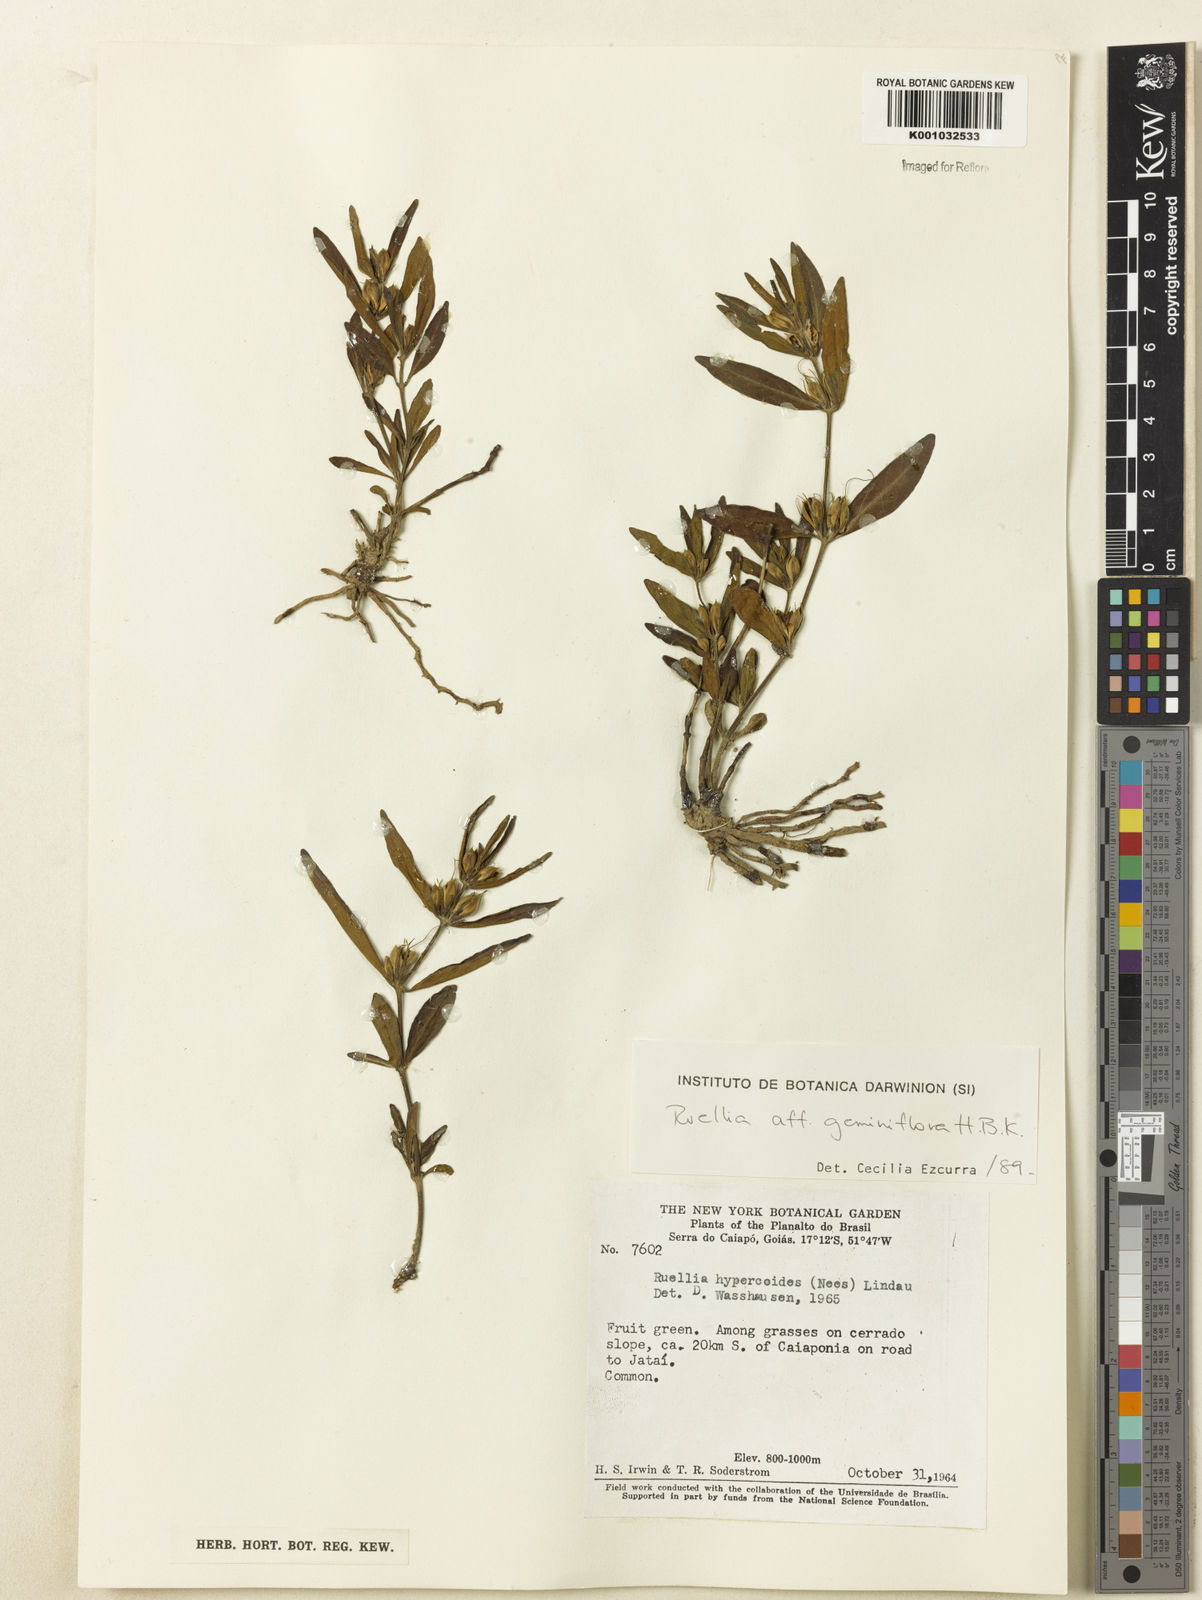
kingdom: Plantae
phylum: Tracheophyta
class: Magnoliopsida
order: Lamiales
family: Acanthaceae
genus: Ruellia
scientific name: Ruellia magniflora
